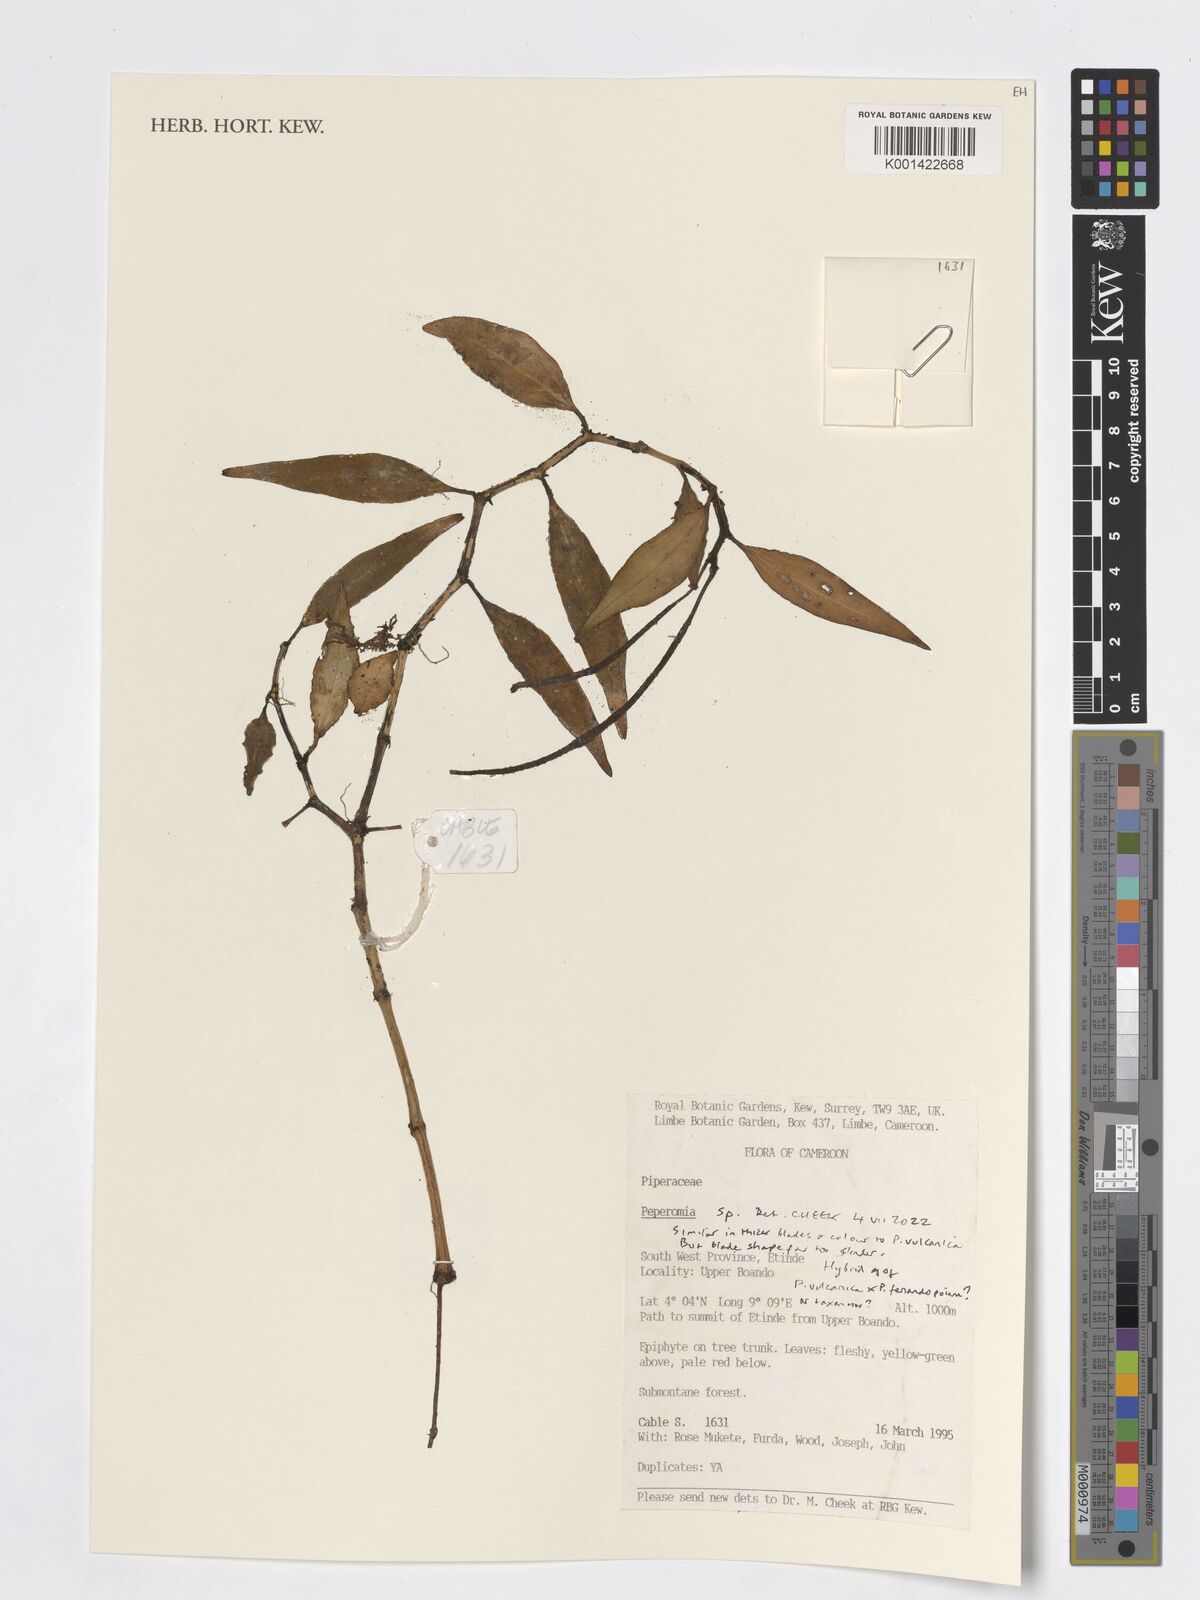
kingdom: Plantae
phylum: Tracheophyta
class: Magnoliopsida
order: Piperales
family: Piperaceae
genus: Peperomia
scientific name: Peperomia
